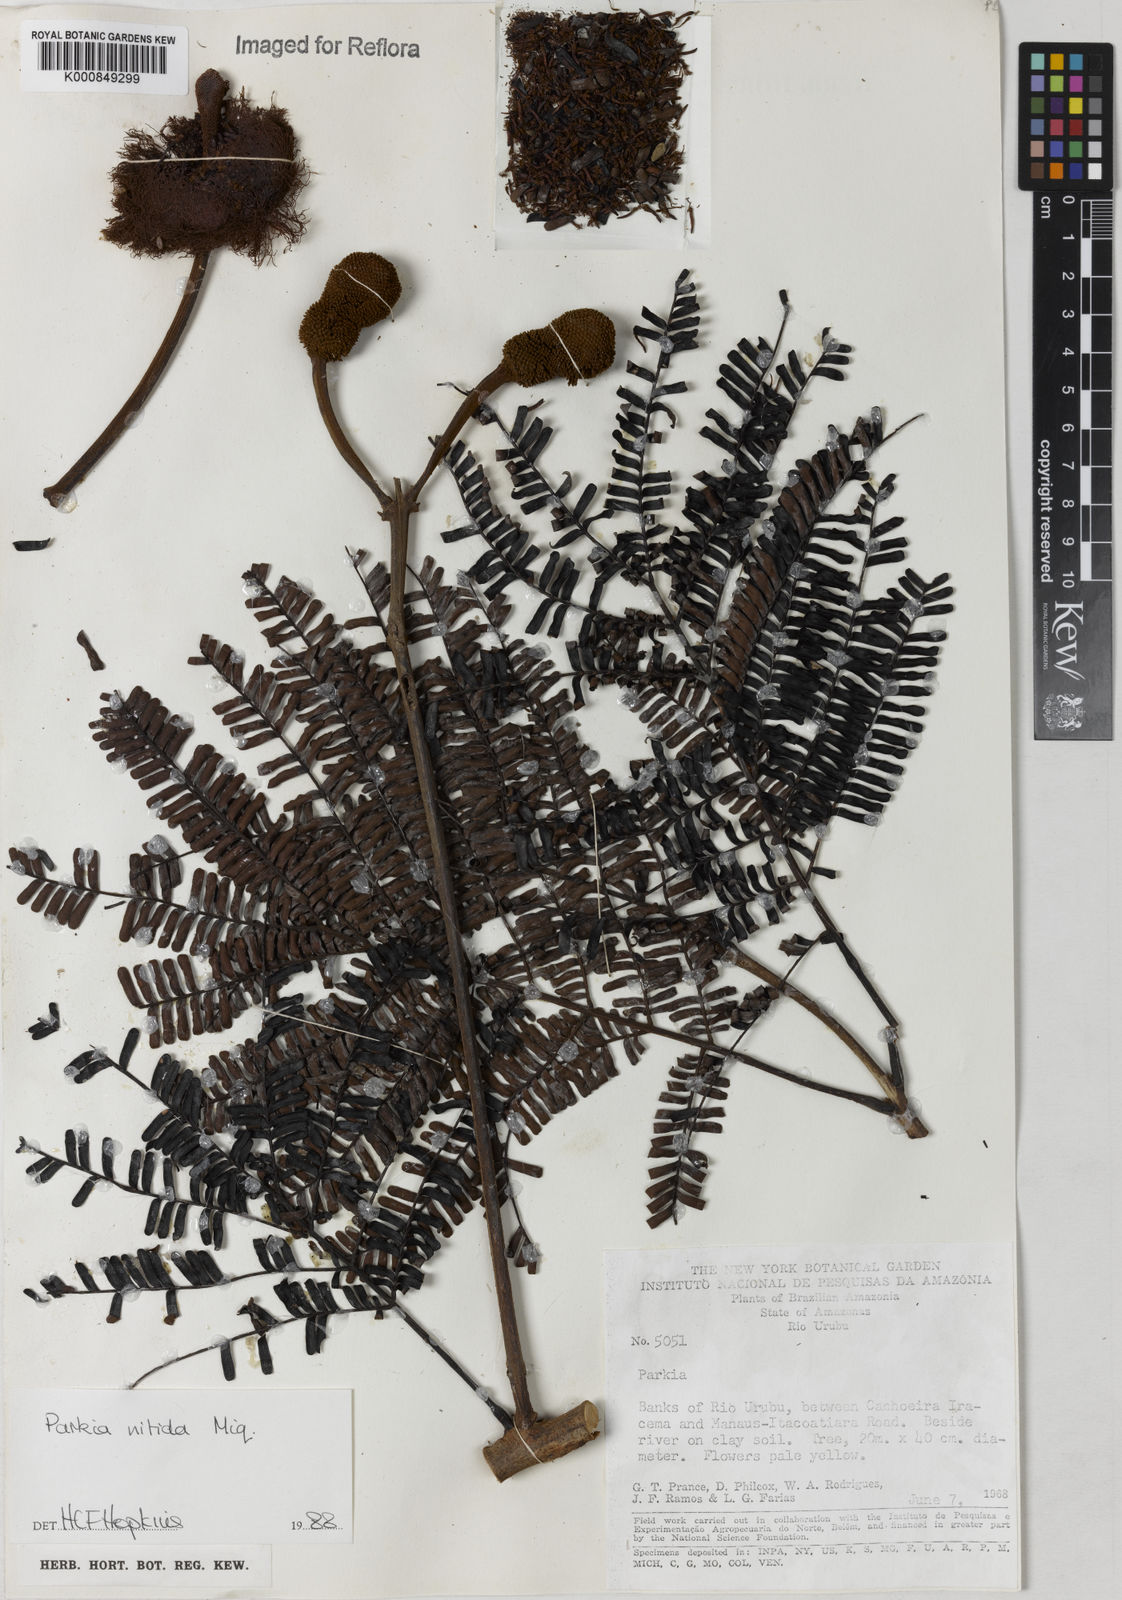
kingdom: Plantae
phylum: Tracheophyta
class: Magnoliopsida
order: Fabales
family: Fabaceae
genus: Parkia
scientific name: Parkia nitida
